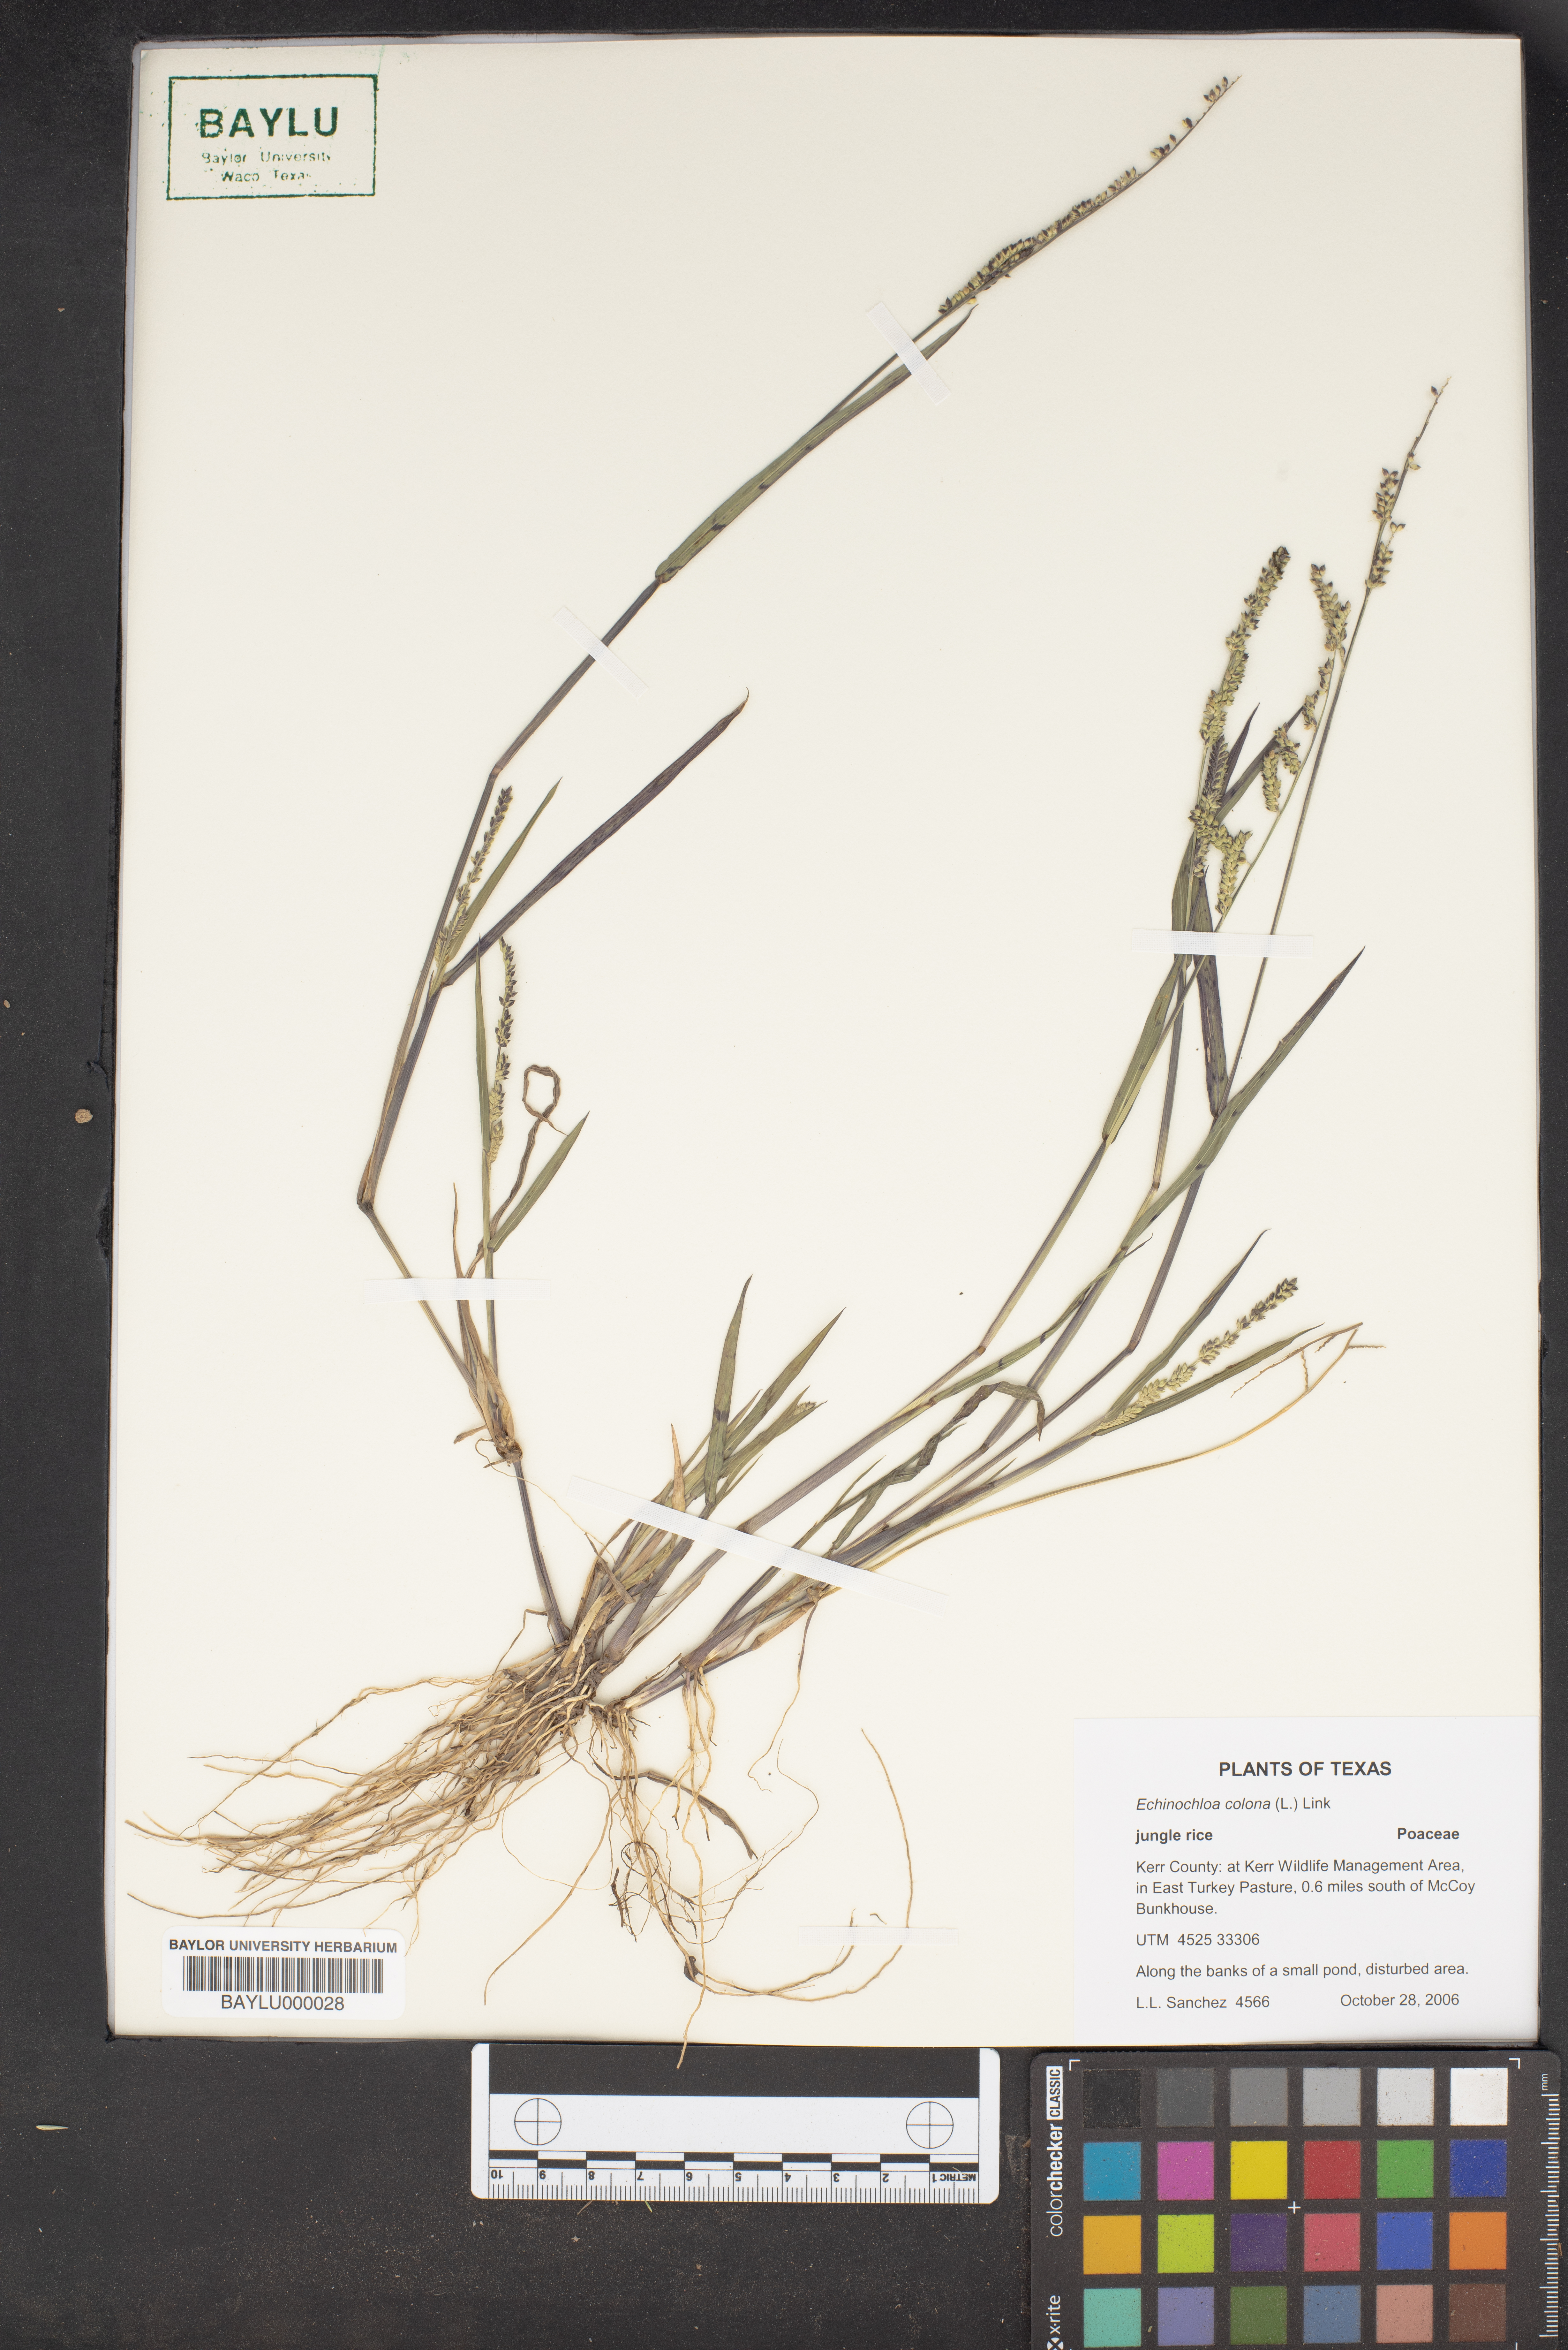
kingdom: Plantae
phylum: Tracheophyta
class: Liliopsida
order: Poales
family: Poaceae
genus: Echinochloa
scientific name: Echinochloa colonum
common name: Jungle rice
